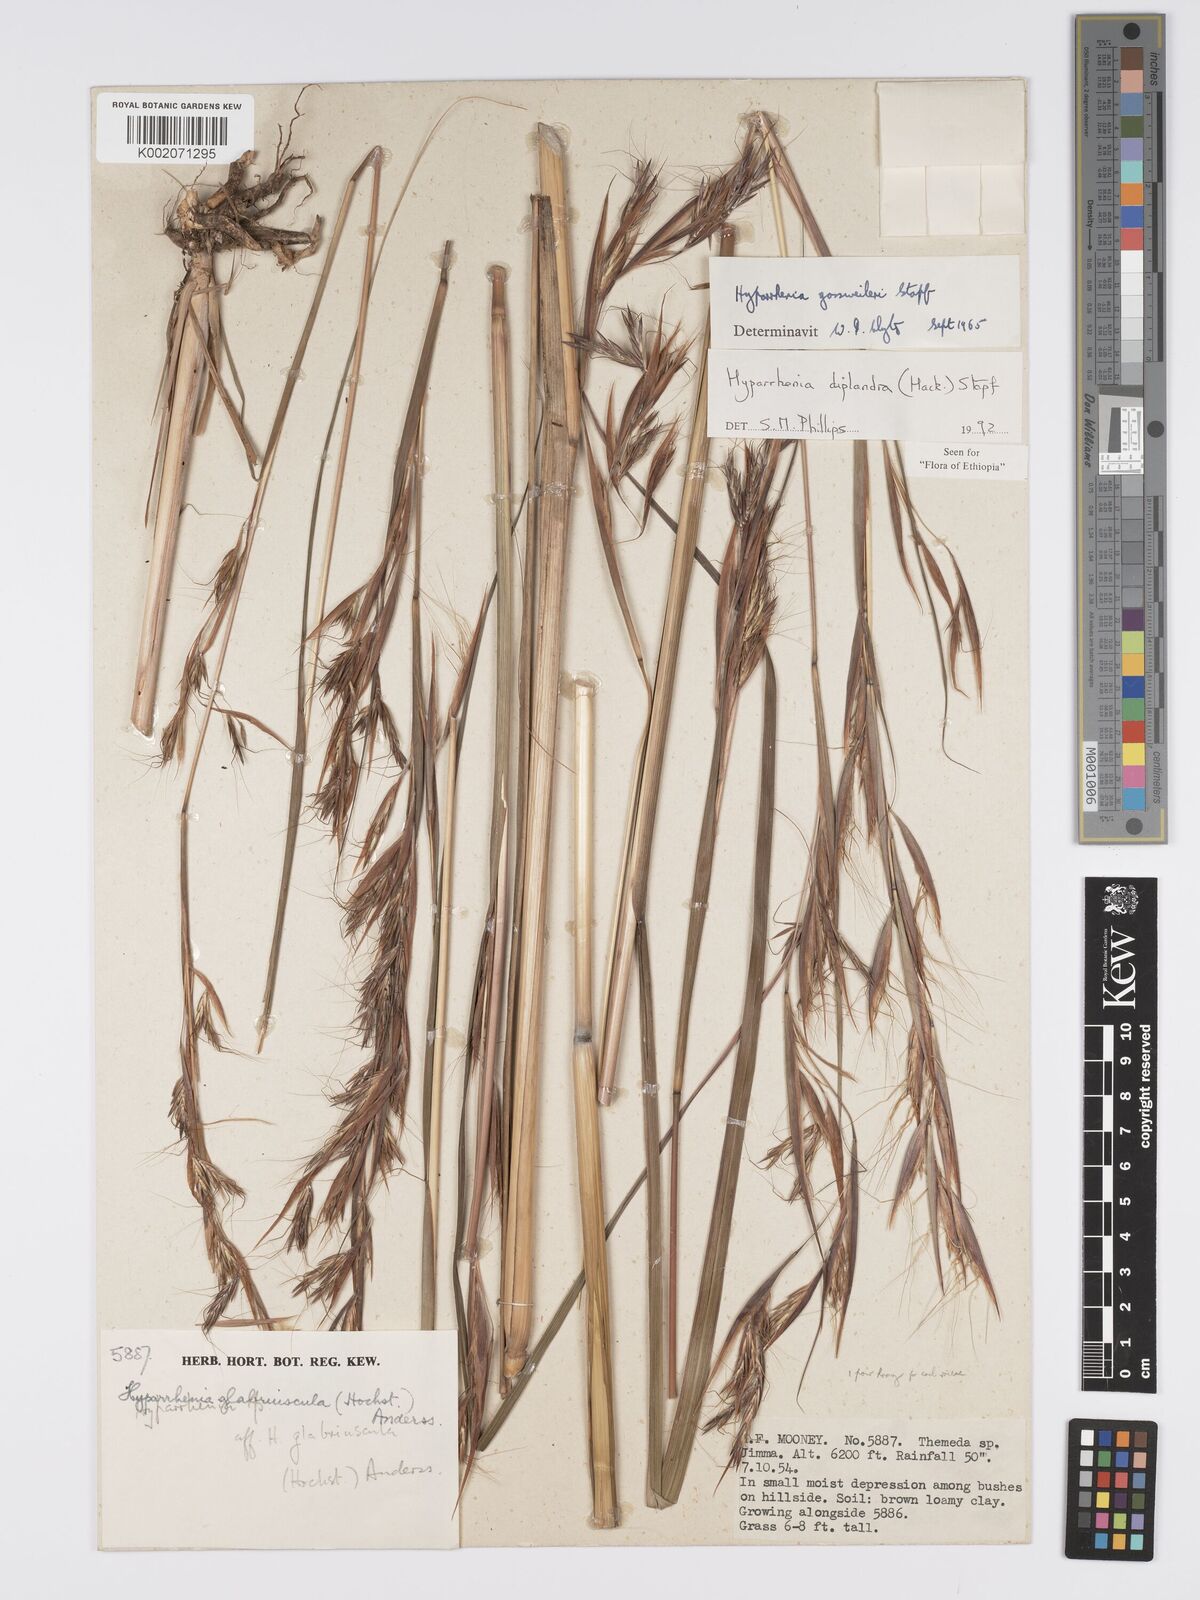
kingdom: Plantae
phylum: Tracheophyta
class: Liliopsida
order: Poales
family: Poaceae
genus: Hyparrhenia
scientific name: Hyparrhenia diplandra
